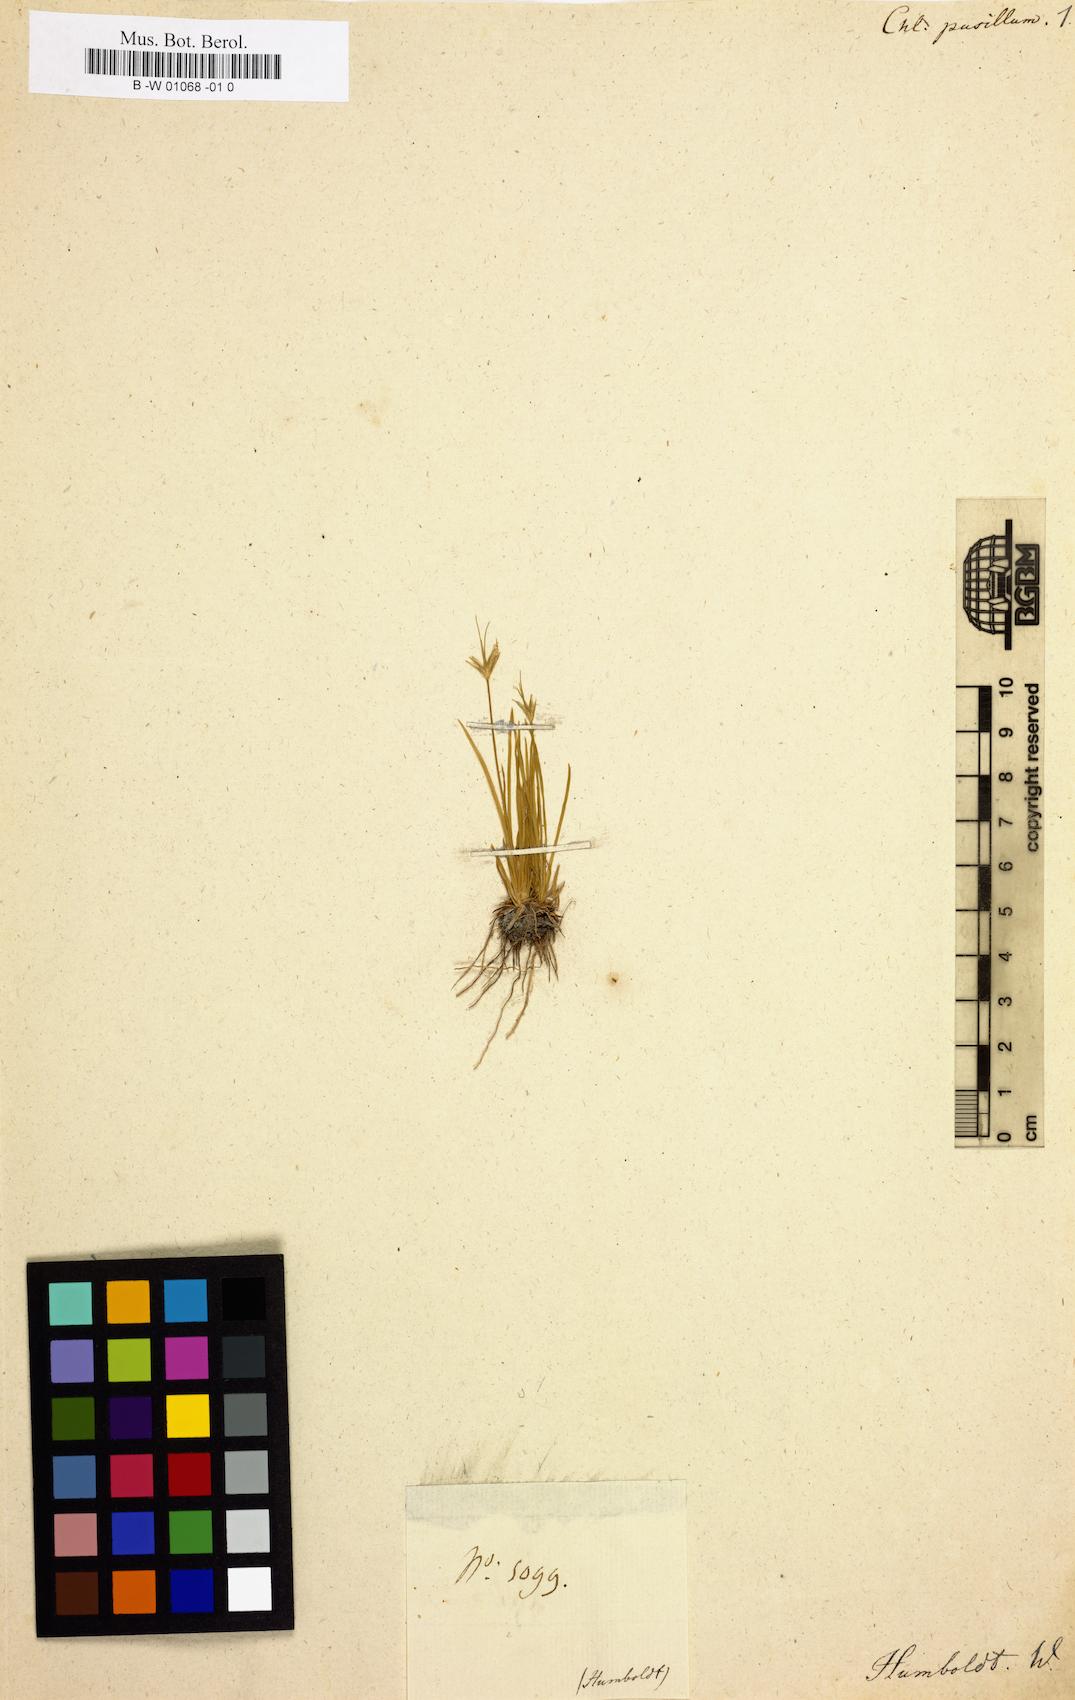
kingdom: Plantae
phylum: Tracheophyta
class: Liliopsida
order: Poales
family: Xyridaceae
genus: Abolboda
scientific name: Abolboda
